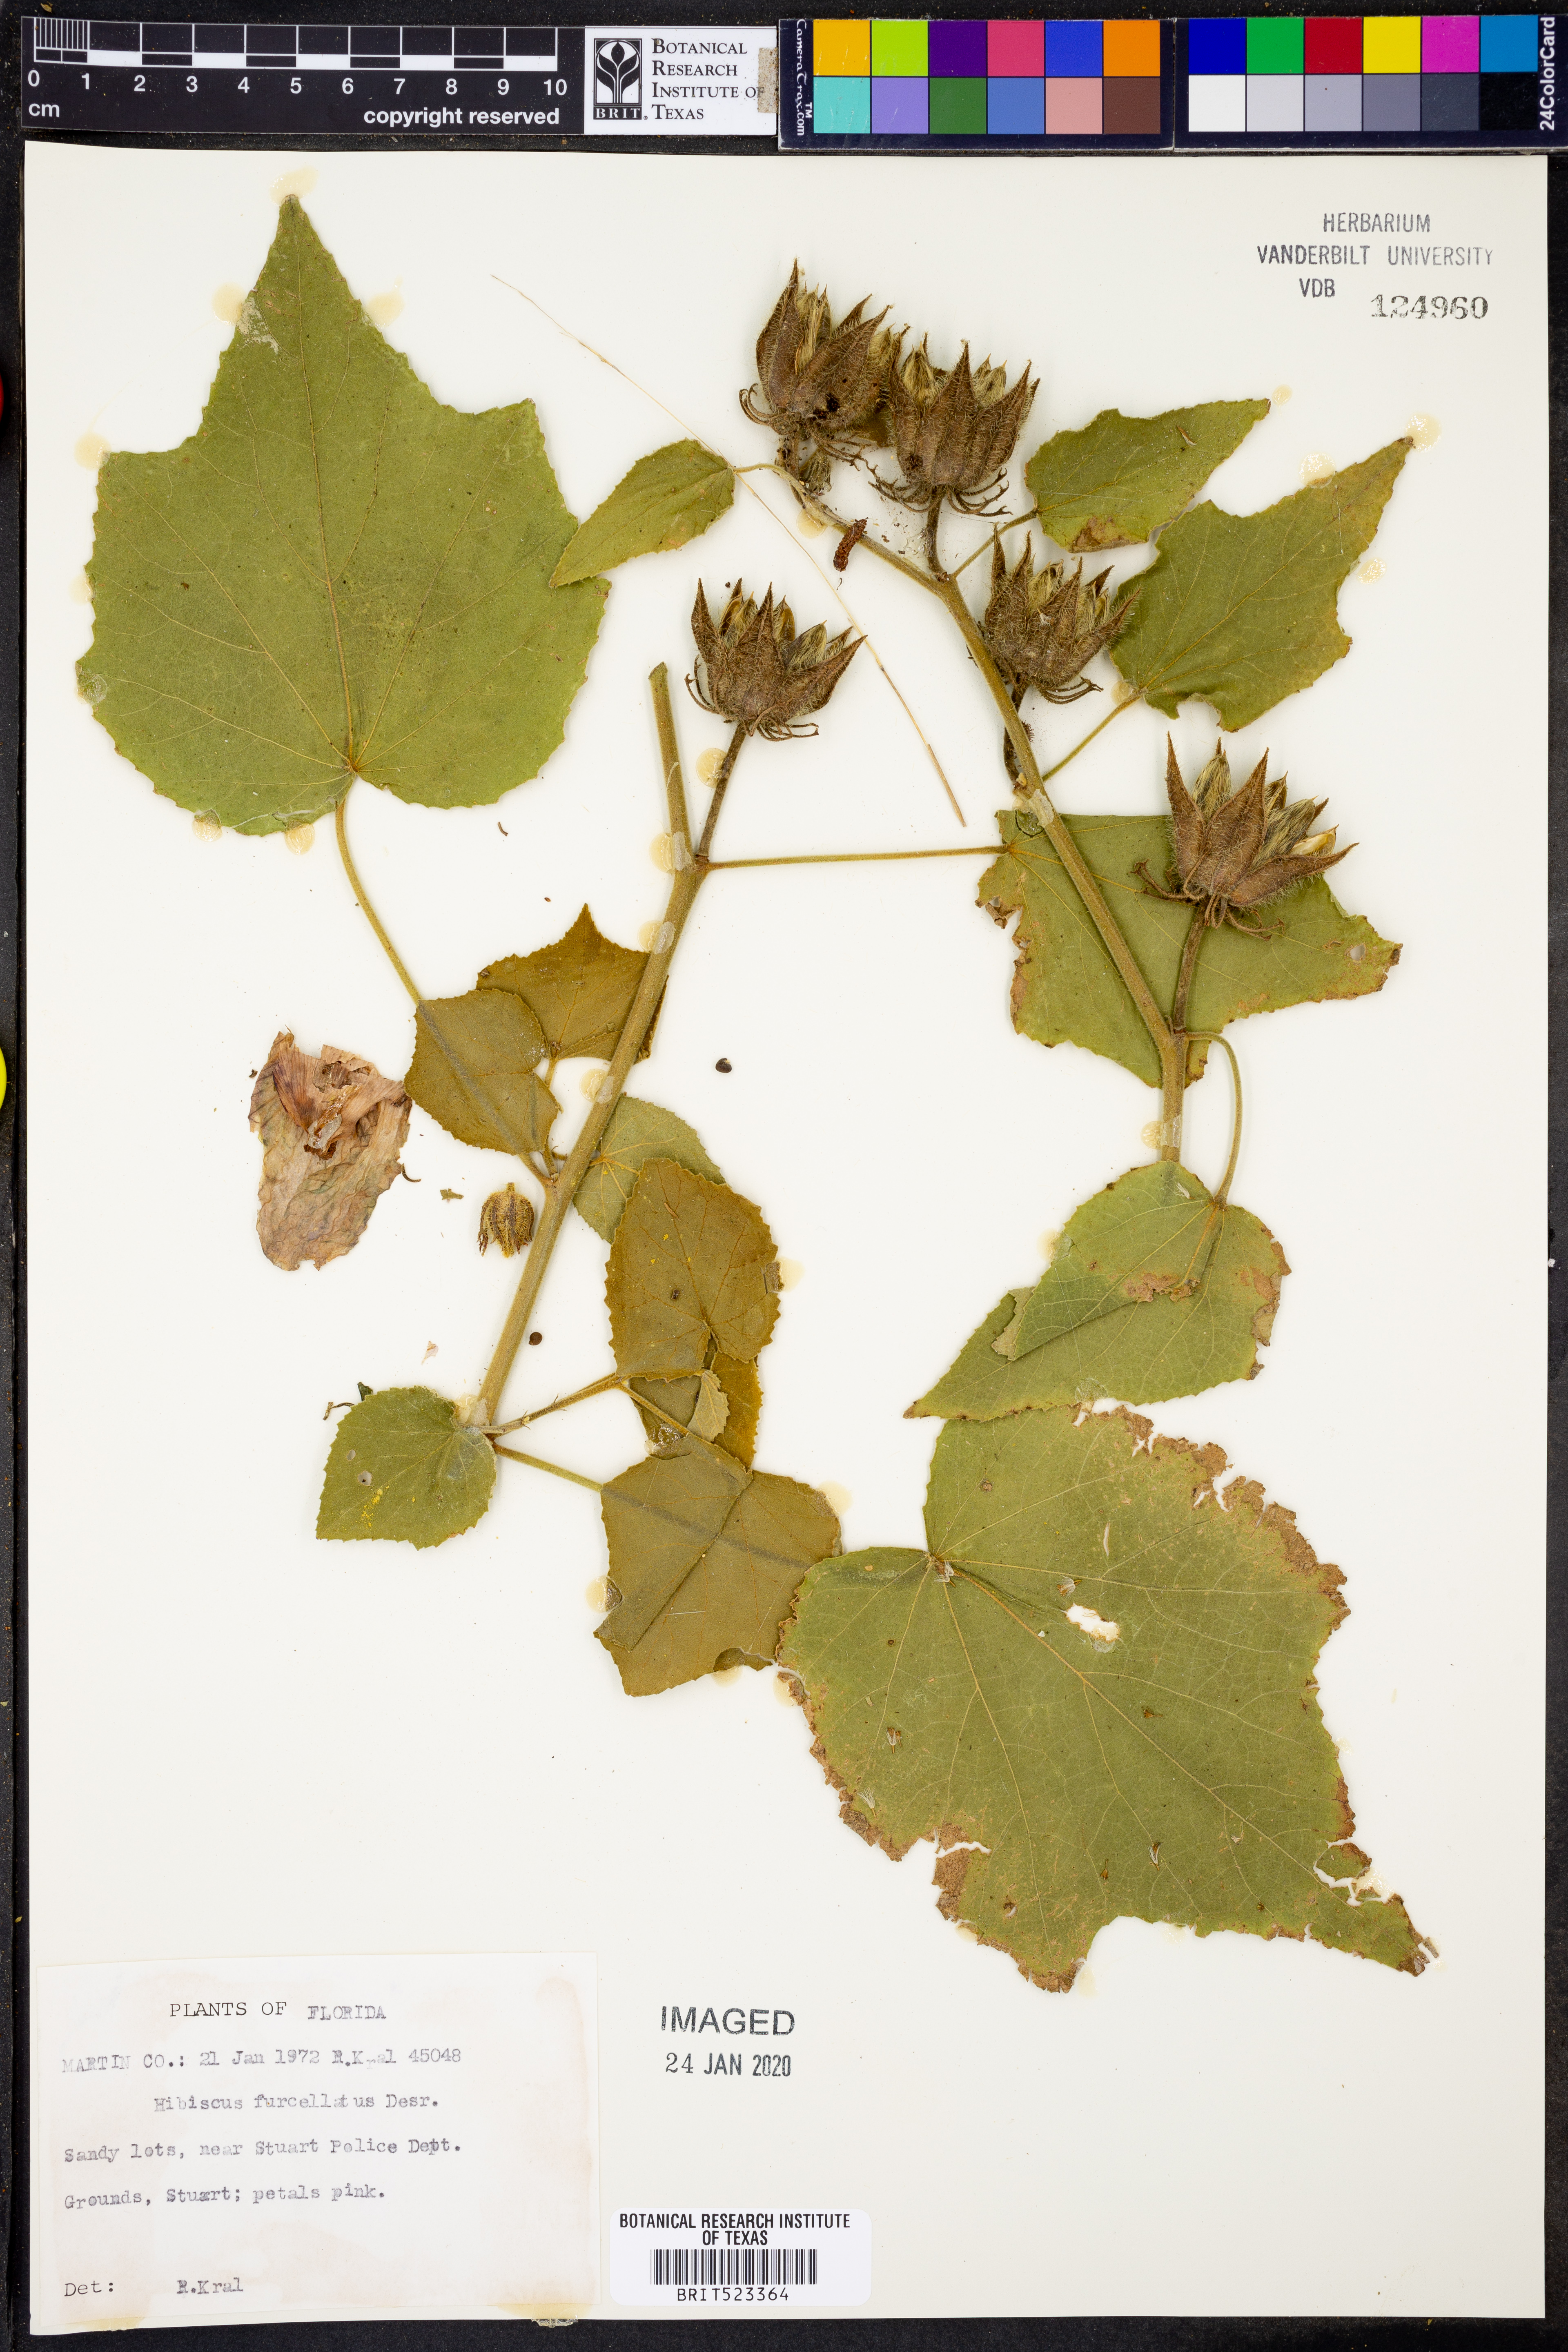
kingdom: Plantae
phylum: Tracheophyta
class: Magnoliopsida
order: Malvales
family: Malvaceae
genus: Hibiscus
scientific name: Hibiscus furcellatus
